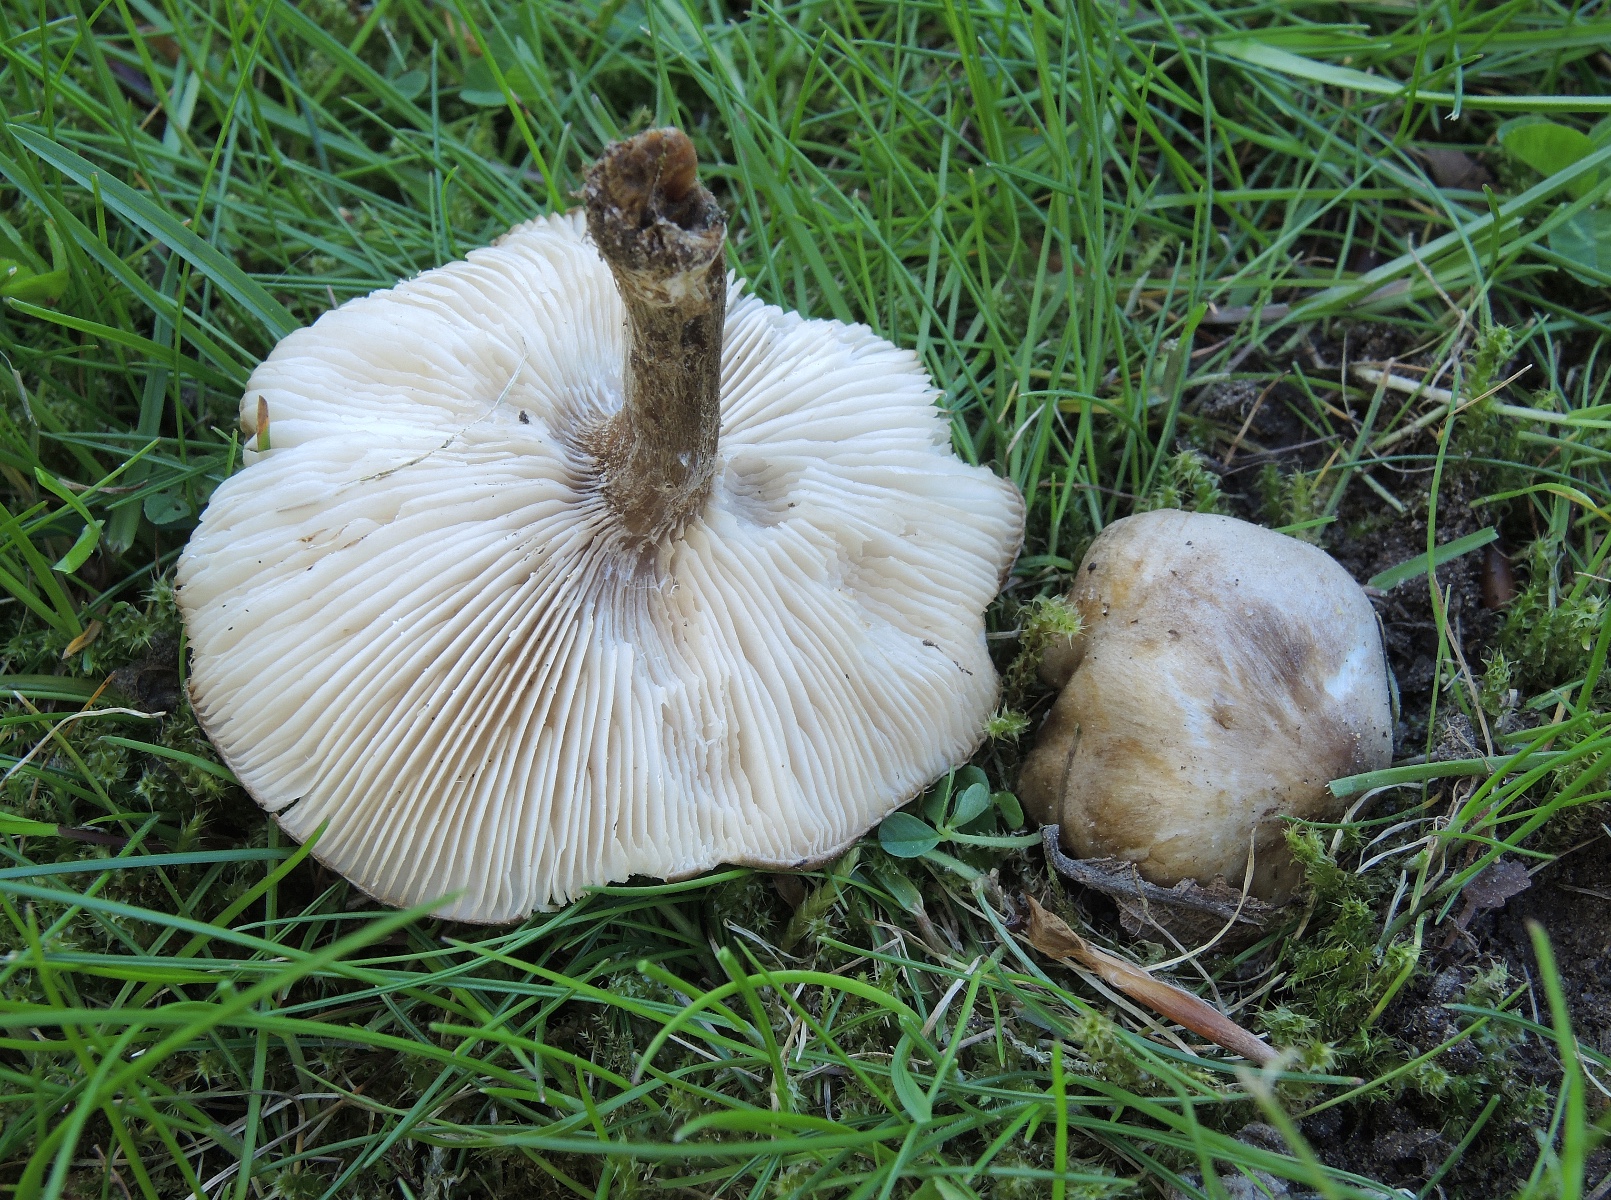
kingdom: Fungi
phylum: Basidiomycota
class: Agaricomycetes
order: Agaricales
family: Tricholomataceae
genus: Melanoleuca
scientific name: Melanoleuca
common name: munkehat
